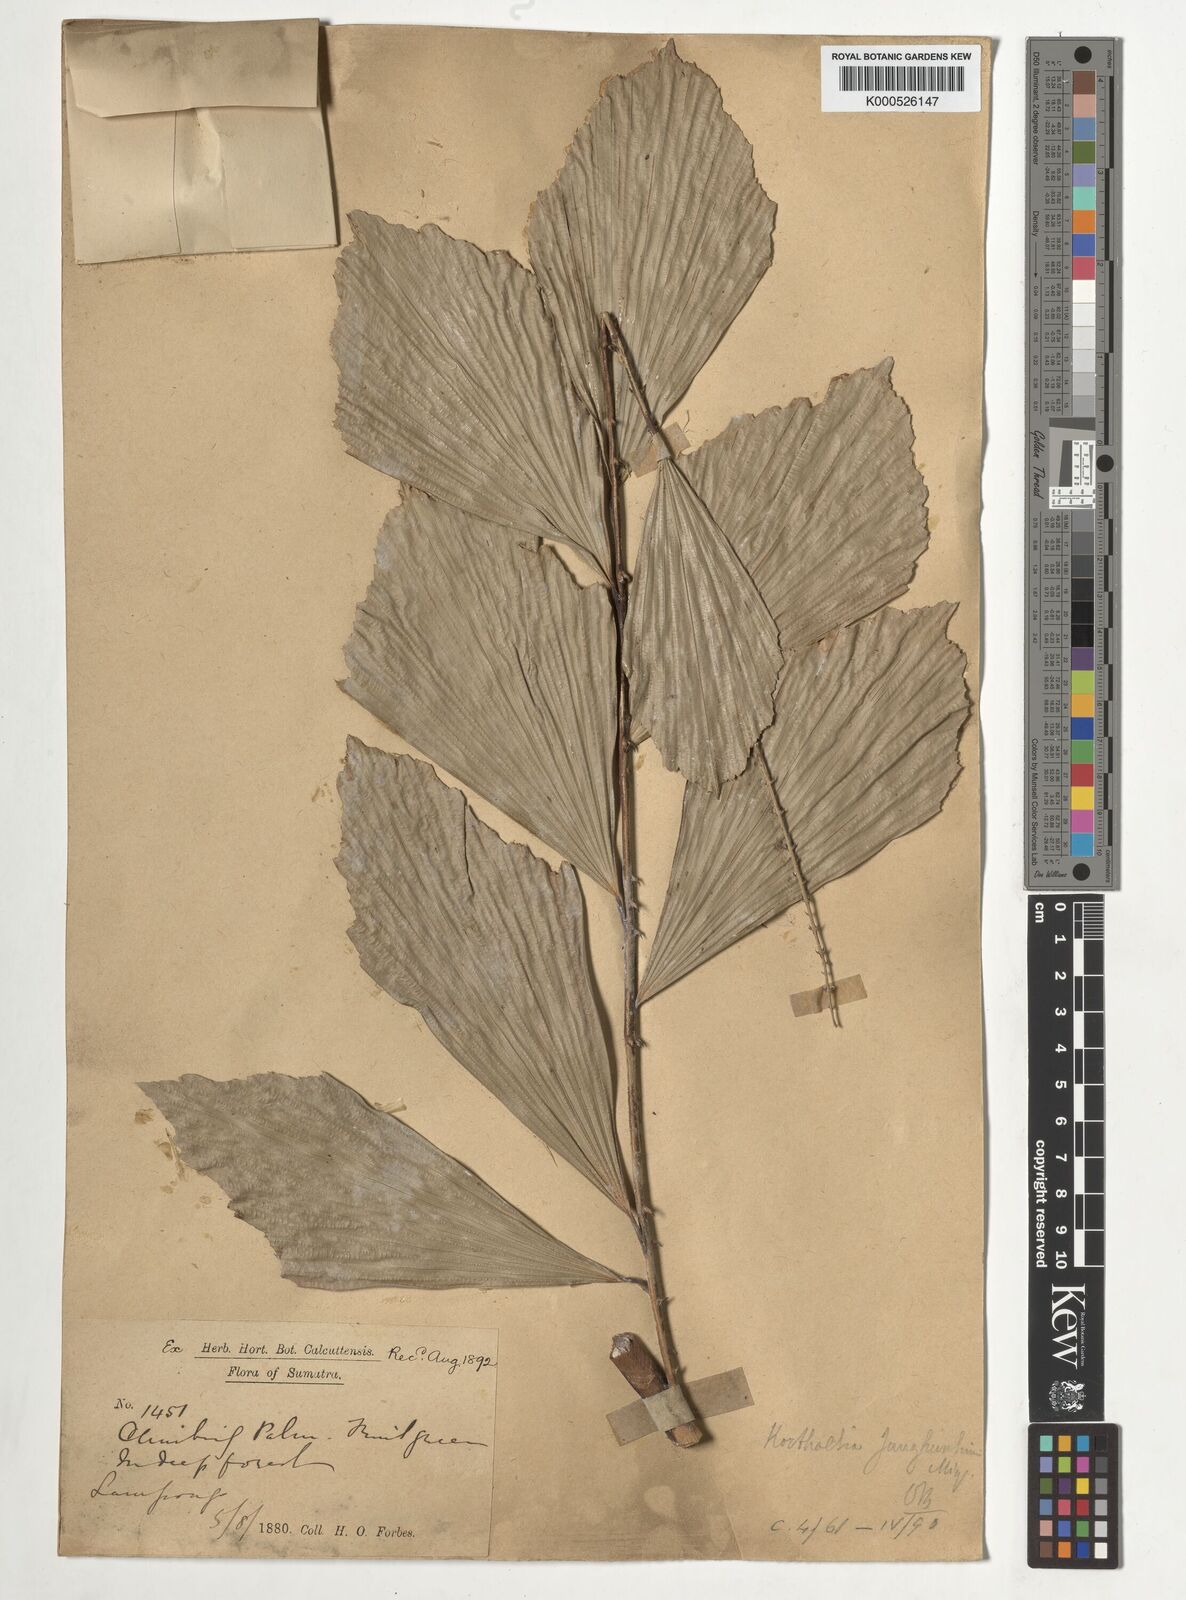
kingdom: Plantae
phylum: Tracheophyta
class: Liliopsida
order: Arecales
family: Arecaceae
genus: Korthalsia
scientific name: Korthalsia junghuhnii
